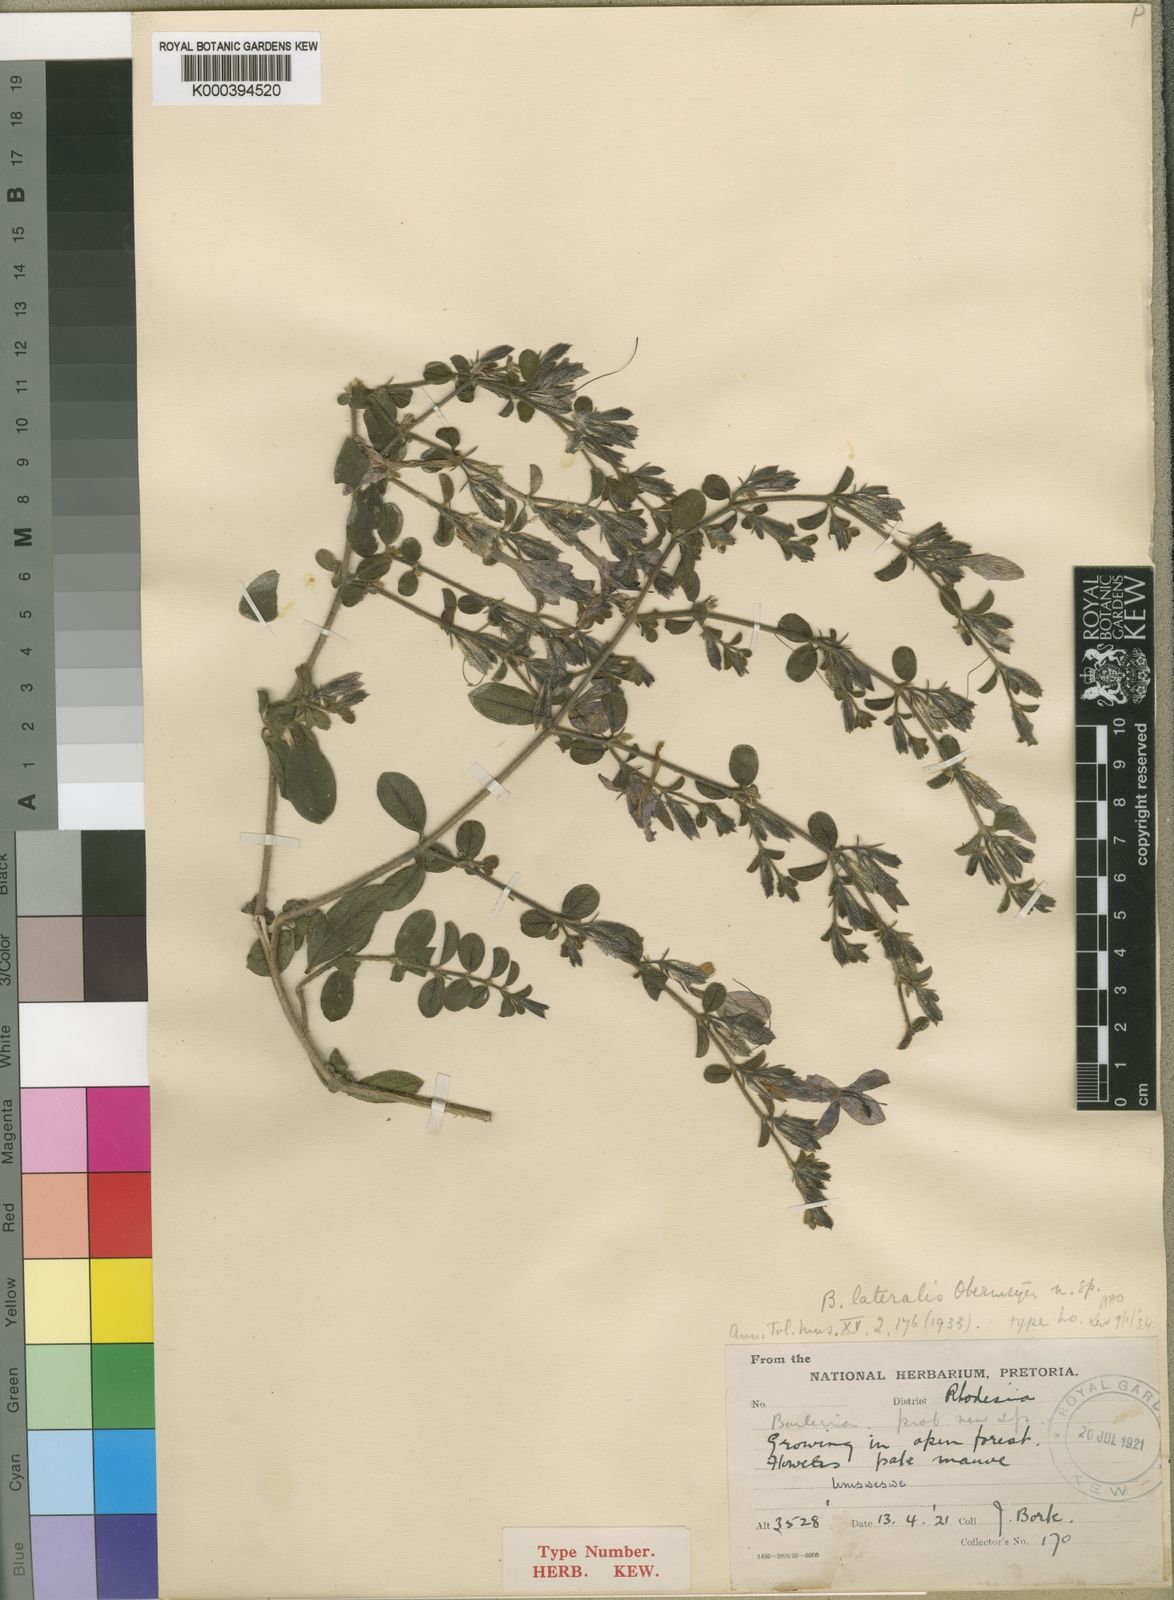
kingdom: Plantae
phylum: Tracheophyta
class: Magnoliopsida
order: Lamiales
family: Acanthaceae
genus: Barleria
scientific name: Barleria spinulosa
